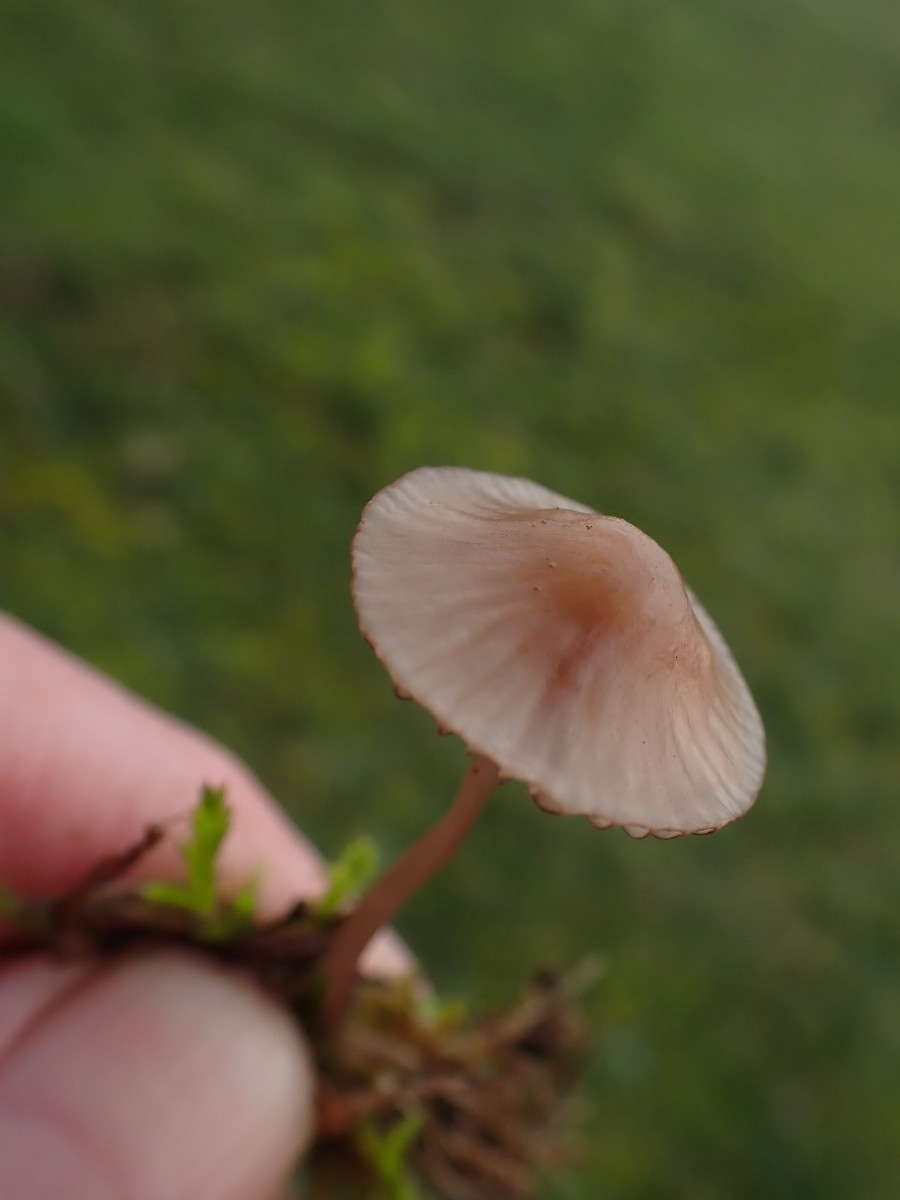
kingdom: Fungi
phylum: Basidiomycota
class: Agaricomycetes
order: Agaricales
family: Mycenaceae
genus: Mycena
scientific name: Mycena sanguinolenta
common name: rødmælket huesvamp
